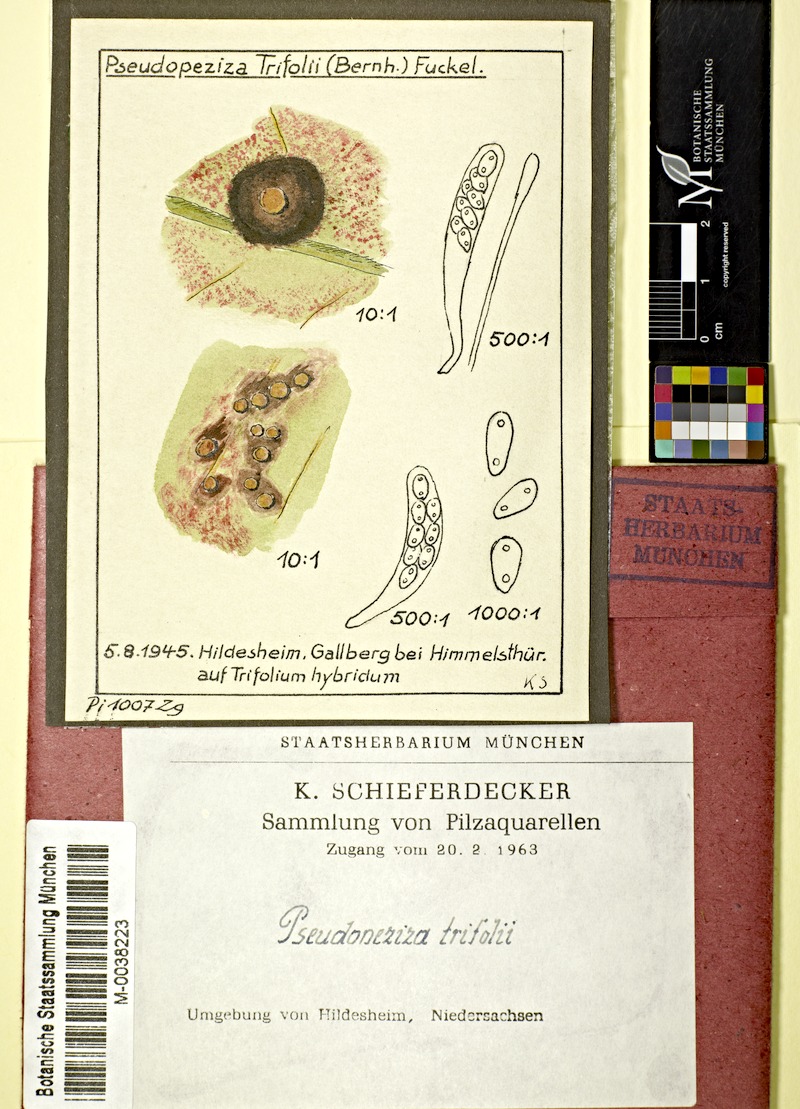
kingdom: Plantae
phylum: Tracheophyta
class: Magnoliopsida
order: Fabales
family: Fabaceae
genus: Trifolium
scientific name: Trifolium hybridum
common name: Alsike clover
